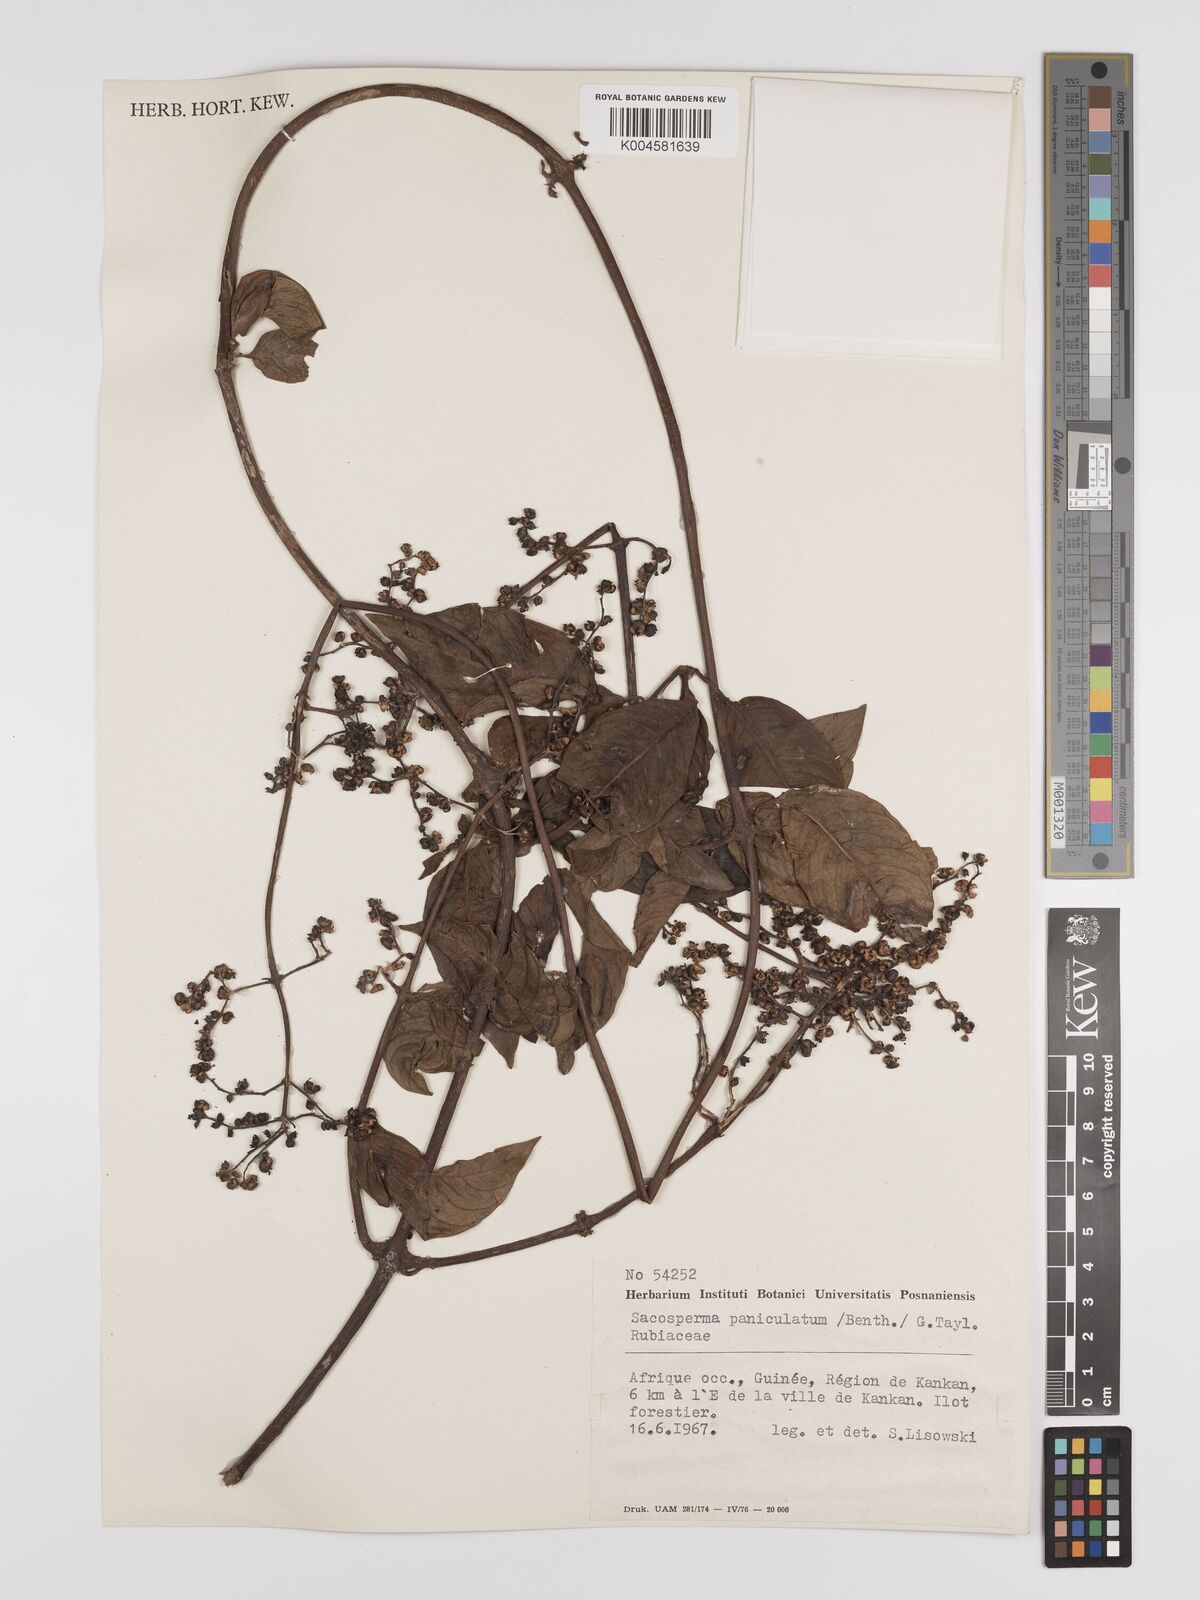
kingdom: Plantae
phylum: Tracheophyta
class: Magnoliopsida
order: Gentianales
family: Rubiaceae
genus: Sacosperma
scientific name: Sacosperma paniculatum
